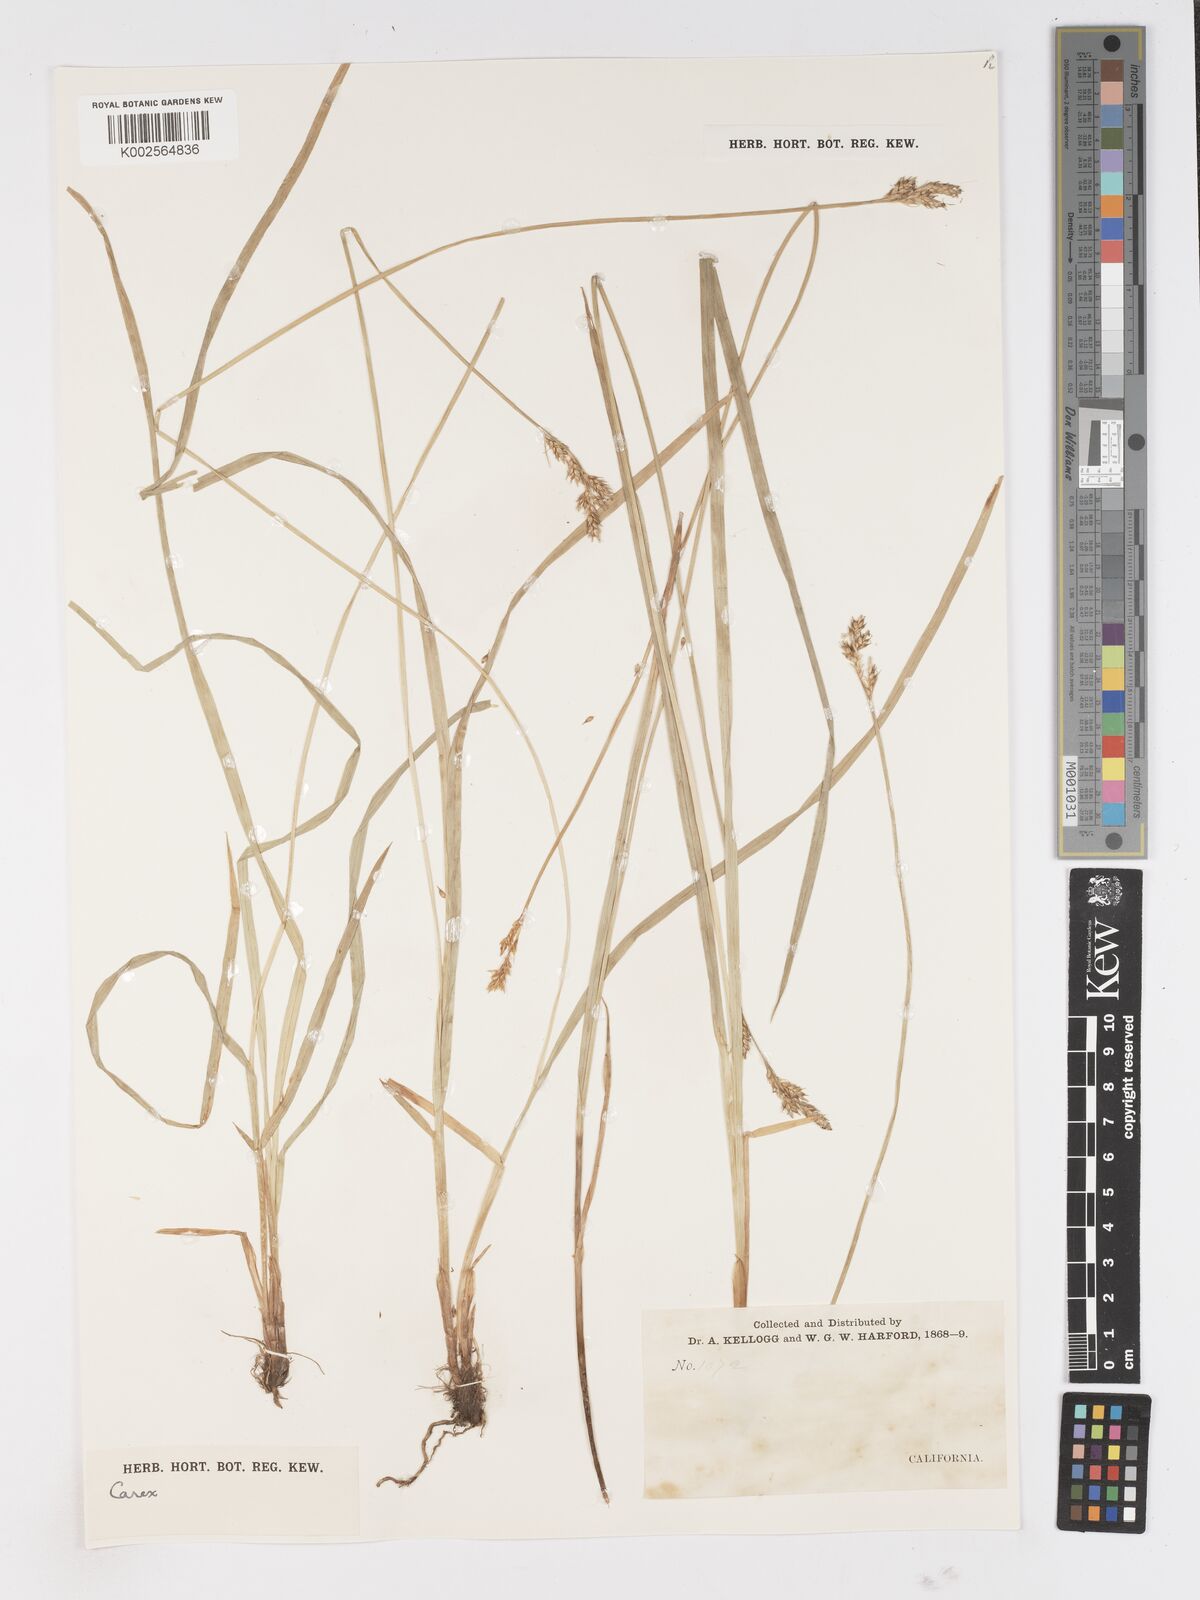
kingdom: Plantae
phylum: Tracheophyta
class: Liliopsida
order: Poales
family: Cyperaceae
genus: Carex
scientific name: Carex
